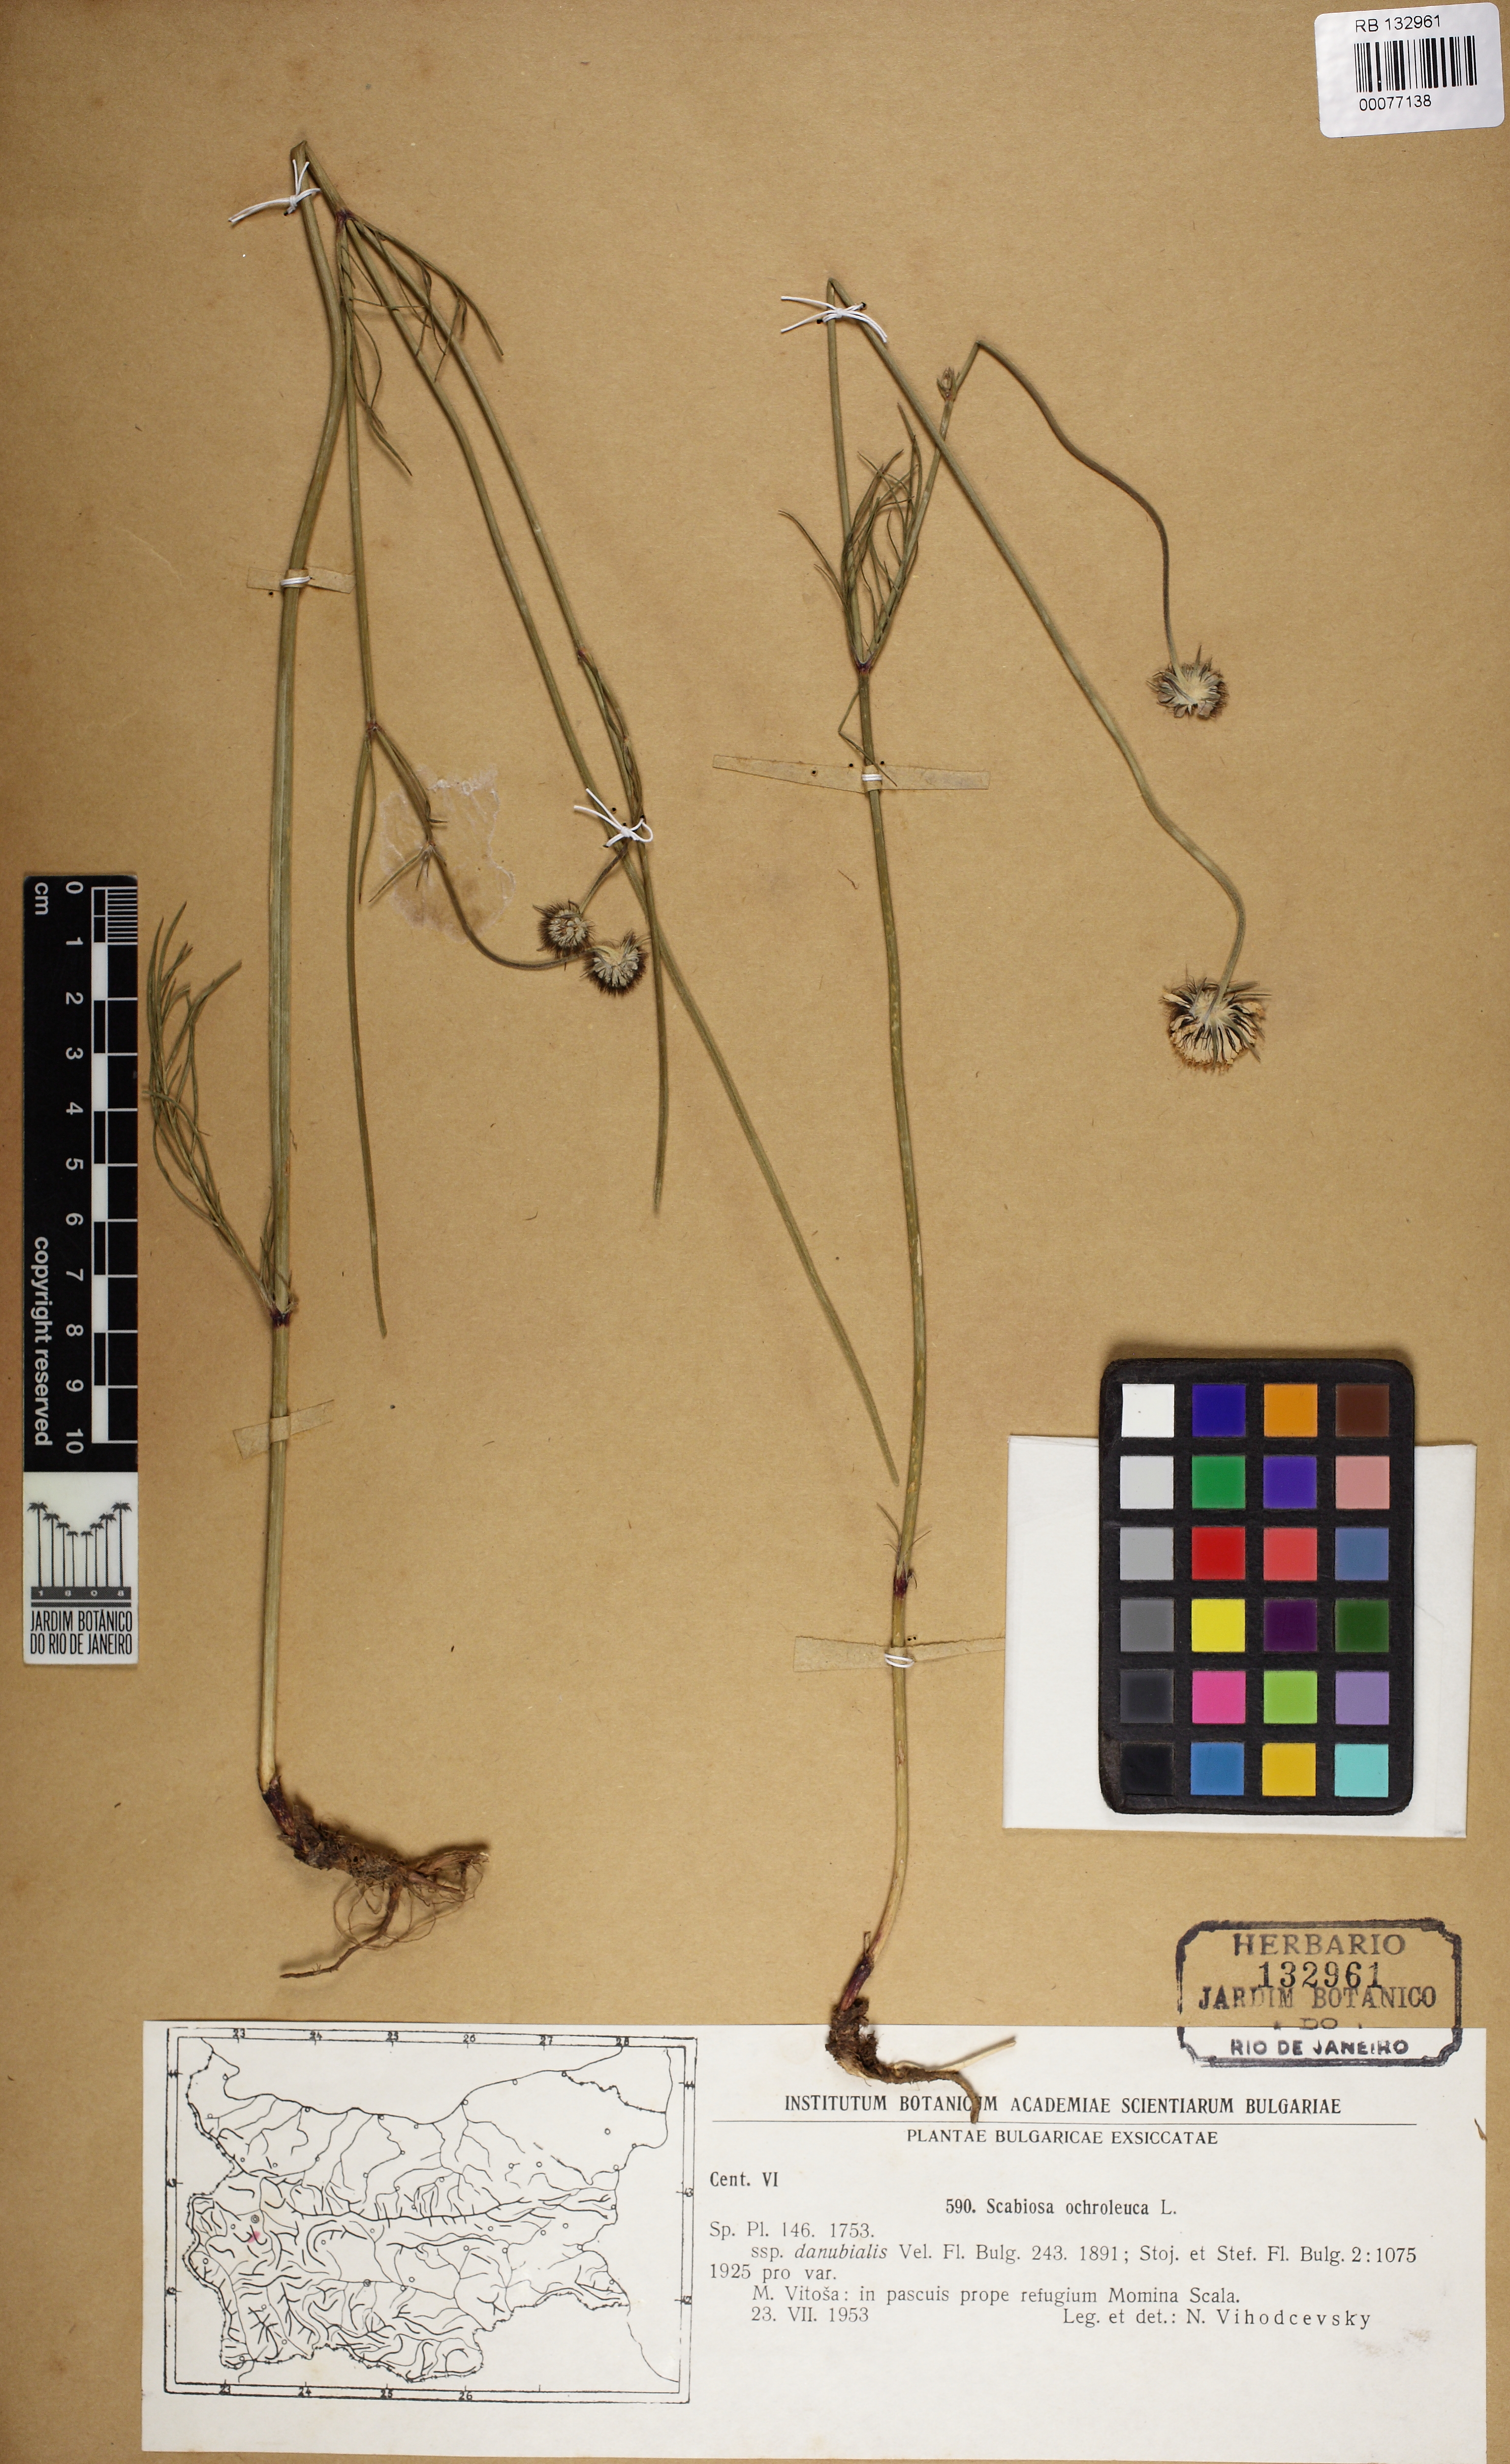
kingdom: Plantae
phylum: Tracheophyta
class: Magnoliopsida
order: Dipsacales
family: Caprifoliaceae
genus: Scabiosa
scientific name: Scabiosa ochroleuca
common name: Cream pincushions
